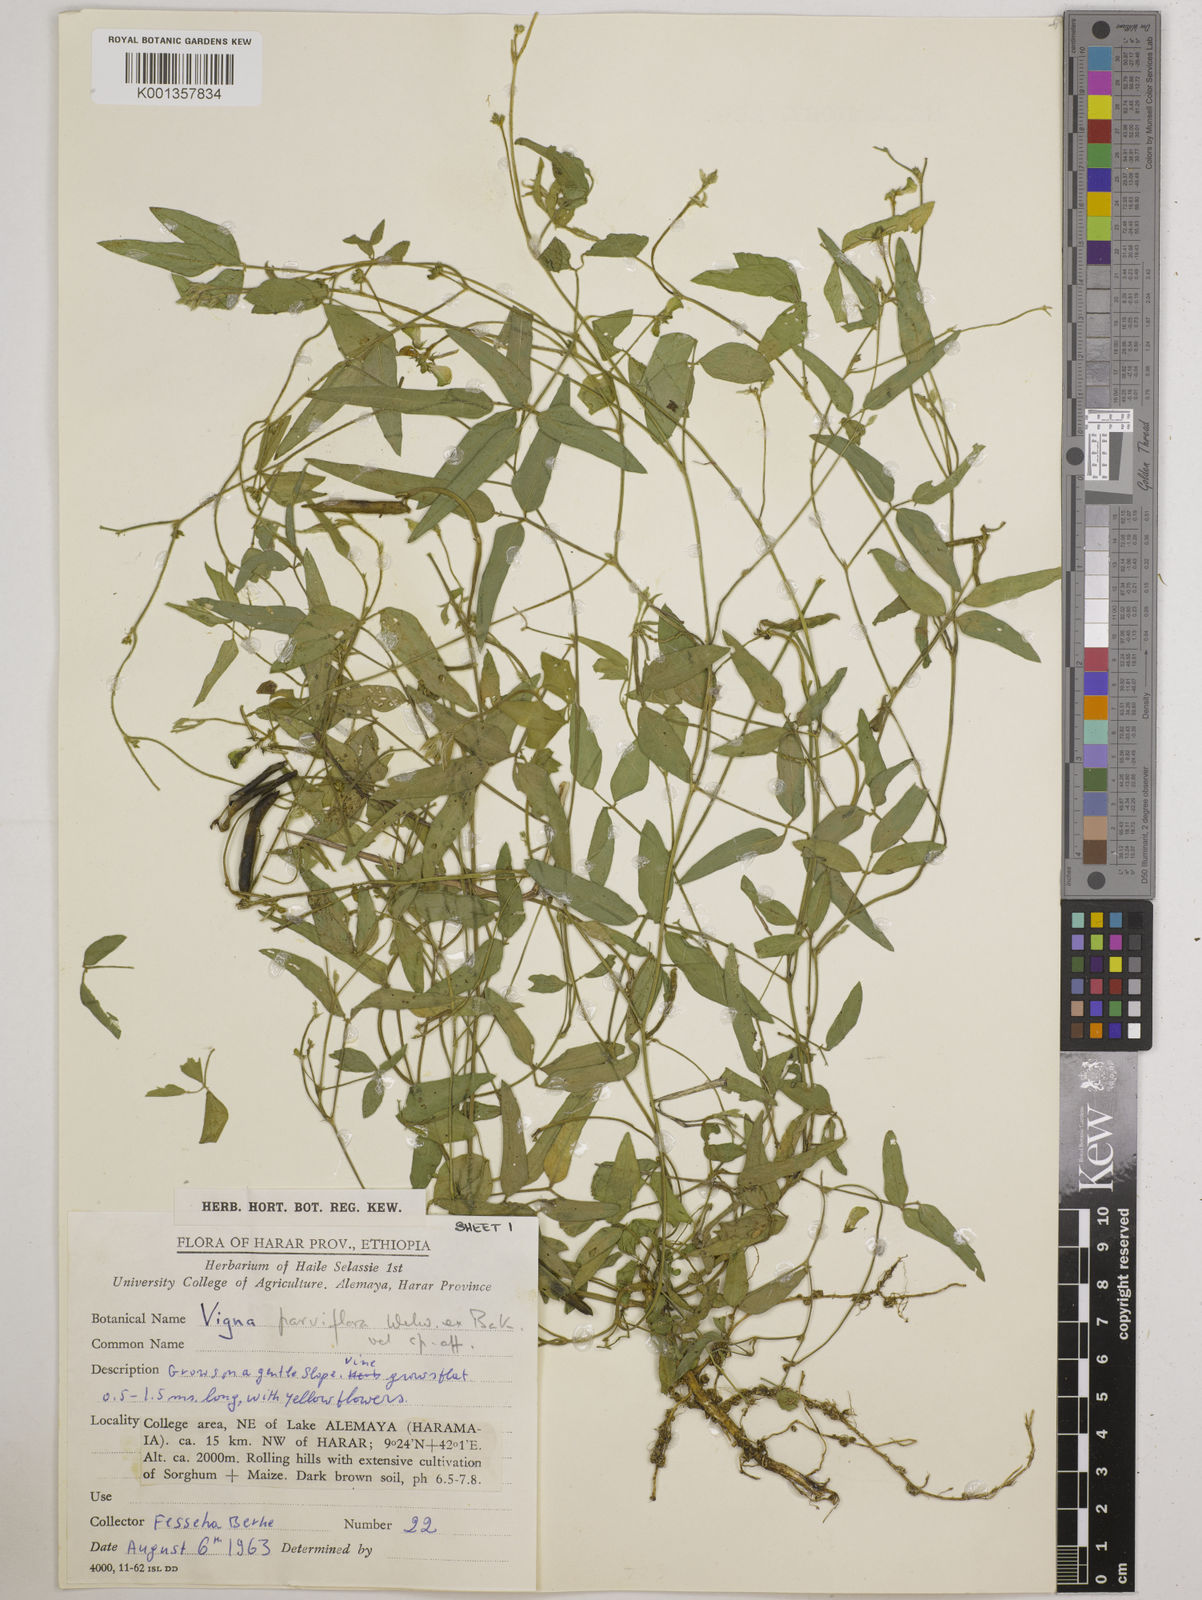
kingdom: Plantae
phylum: Tracheophyta
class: Magnoliopsida
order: Fabales
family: Fabaceae
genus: Vigna
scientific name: Vigna
